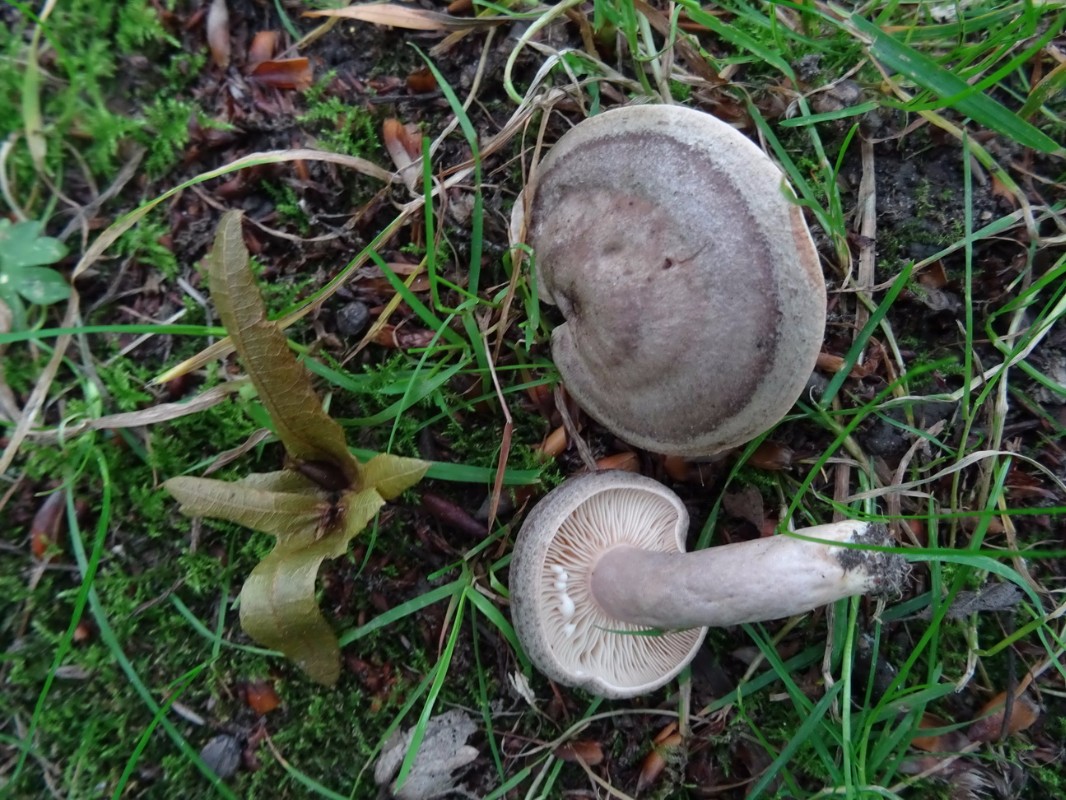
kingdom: Fungi
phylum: Basidiomycota
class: Agaricomycetes
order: Russulales
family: Russulaceae
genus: Lactarius
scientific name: Lactarius circellatus
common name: avnbøg-mælkehat
